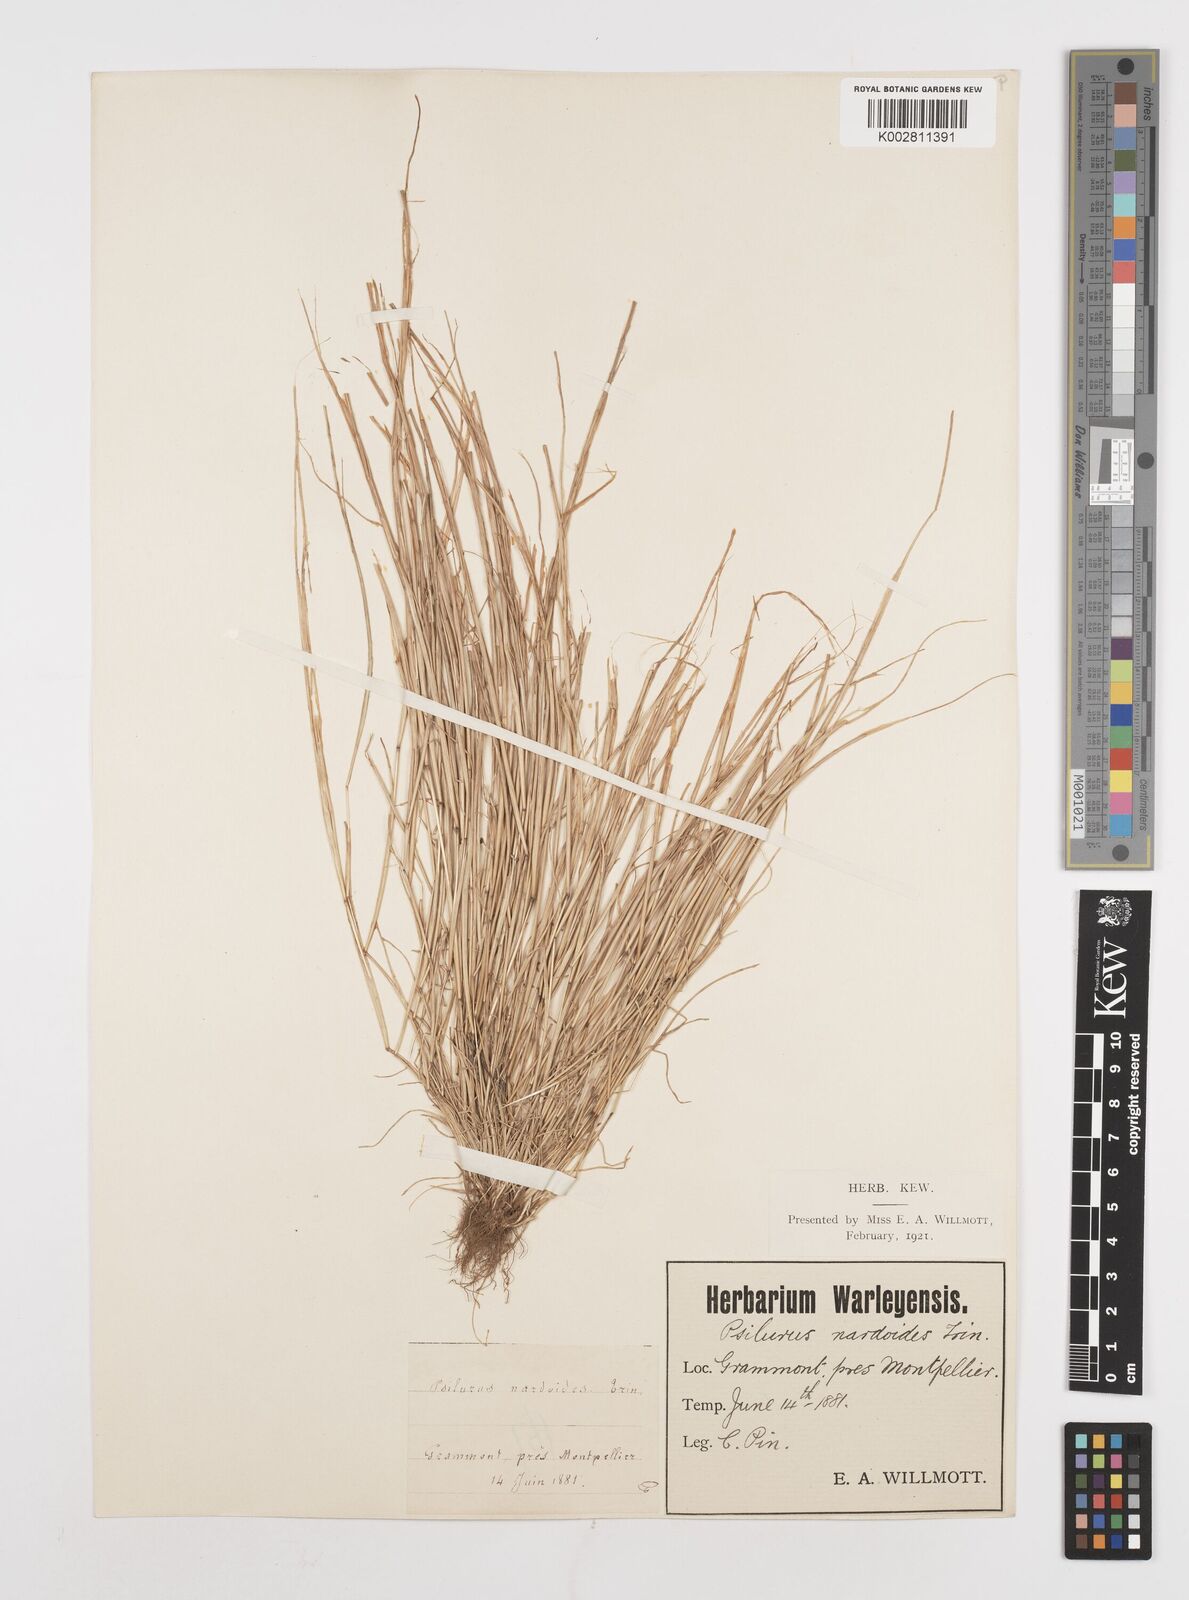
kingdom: Plantae
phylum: Tracheophyta
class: Liliopsida
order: Poales
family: Poaceae
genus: Festuca
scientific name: Festuca incurva
